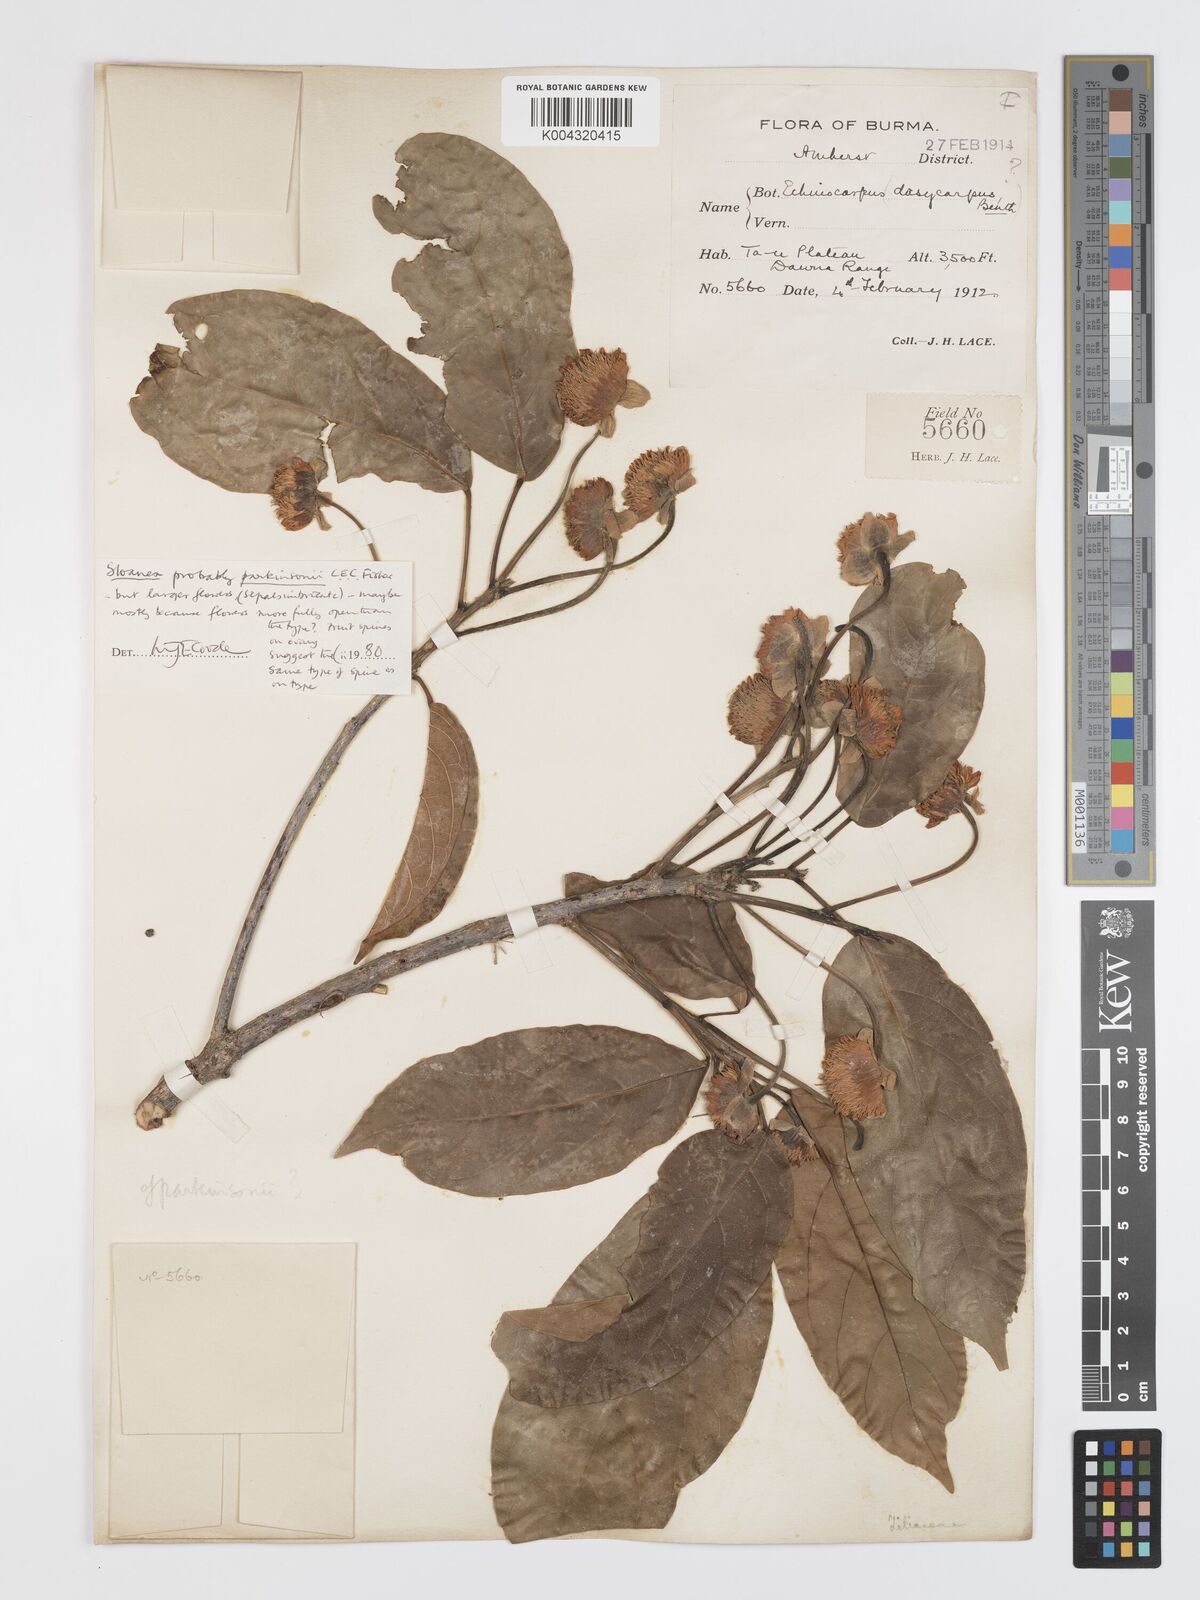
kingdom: Plantae
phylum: Tracheophyta
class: Magnoliopsida
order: Oxalidales
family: Elaeocarpaceae
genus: Sloanea
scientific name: Sloanea parkinsonii
